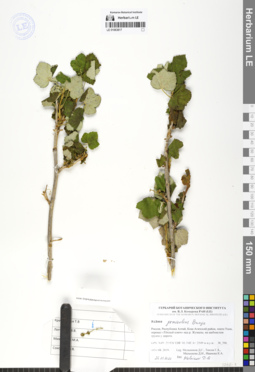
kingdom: Plantae
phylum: Tracheophyta
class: Magnoliopsida
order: Saxifragales
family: Grossulariaceae
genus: Ribes
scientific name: Ribes graveolens
